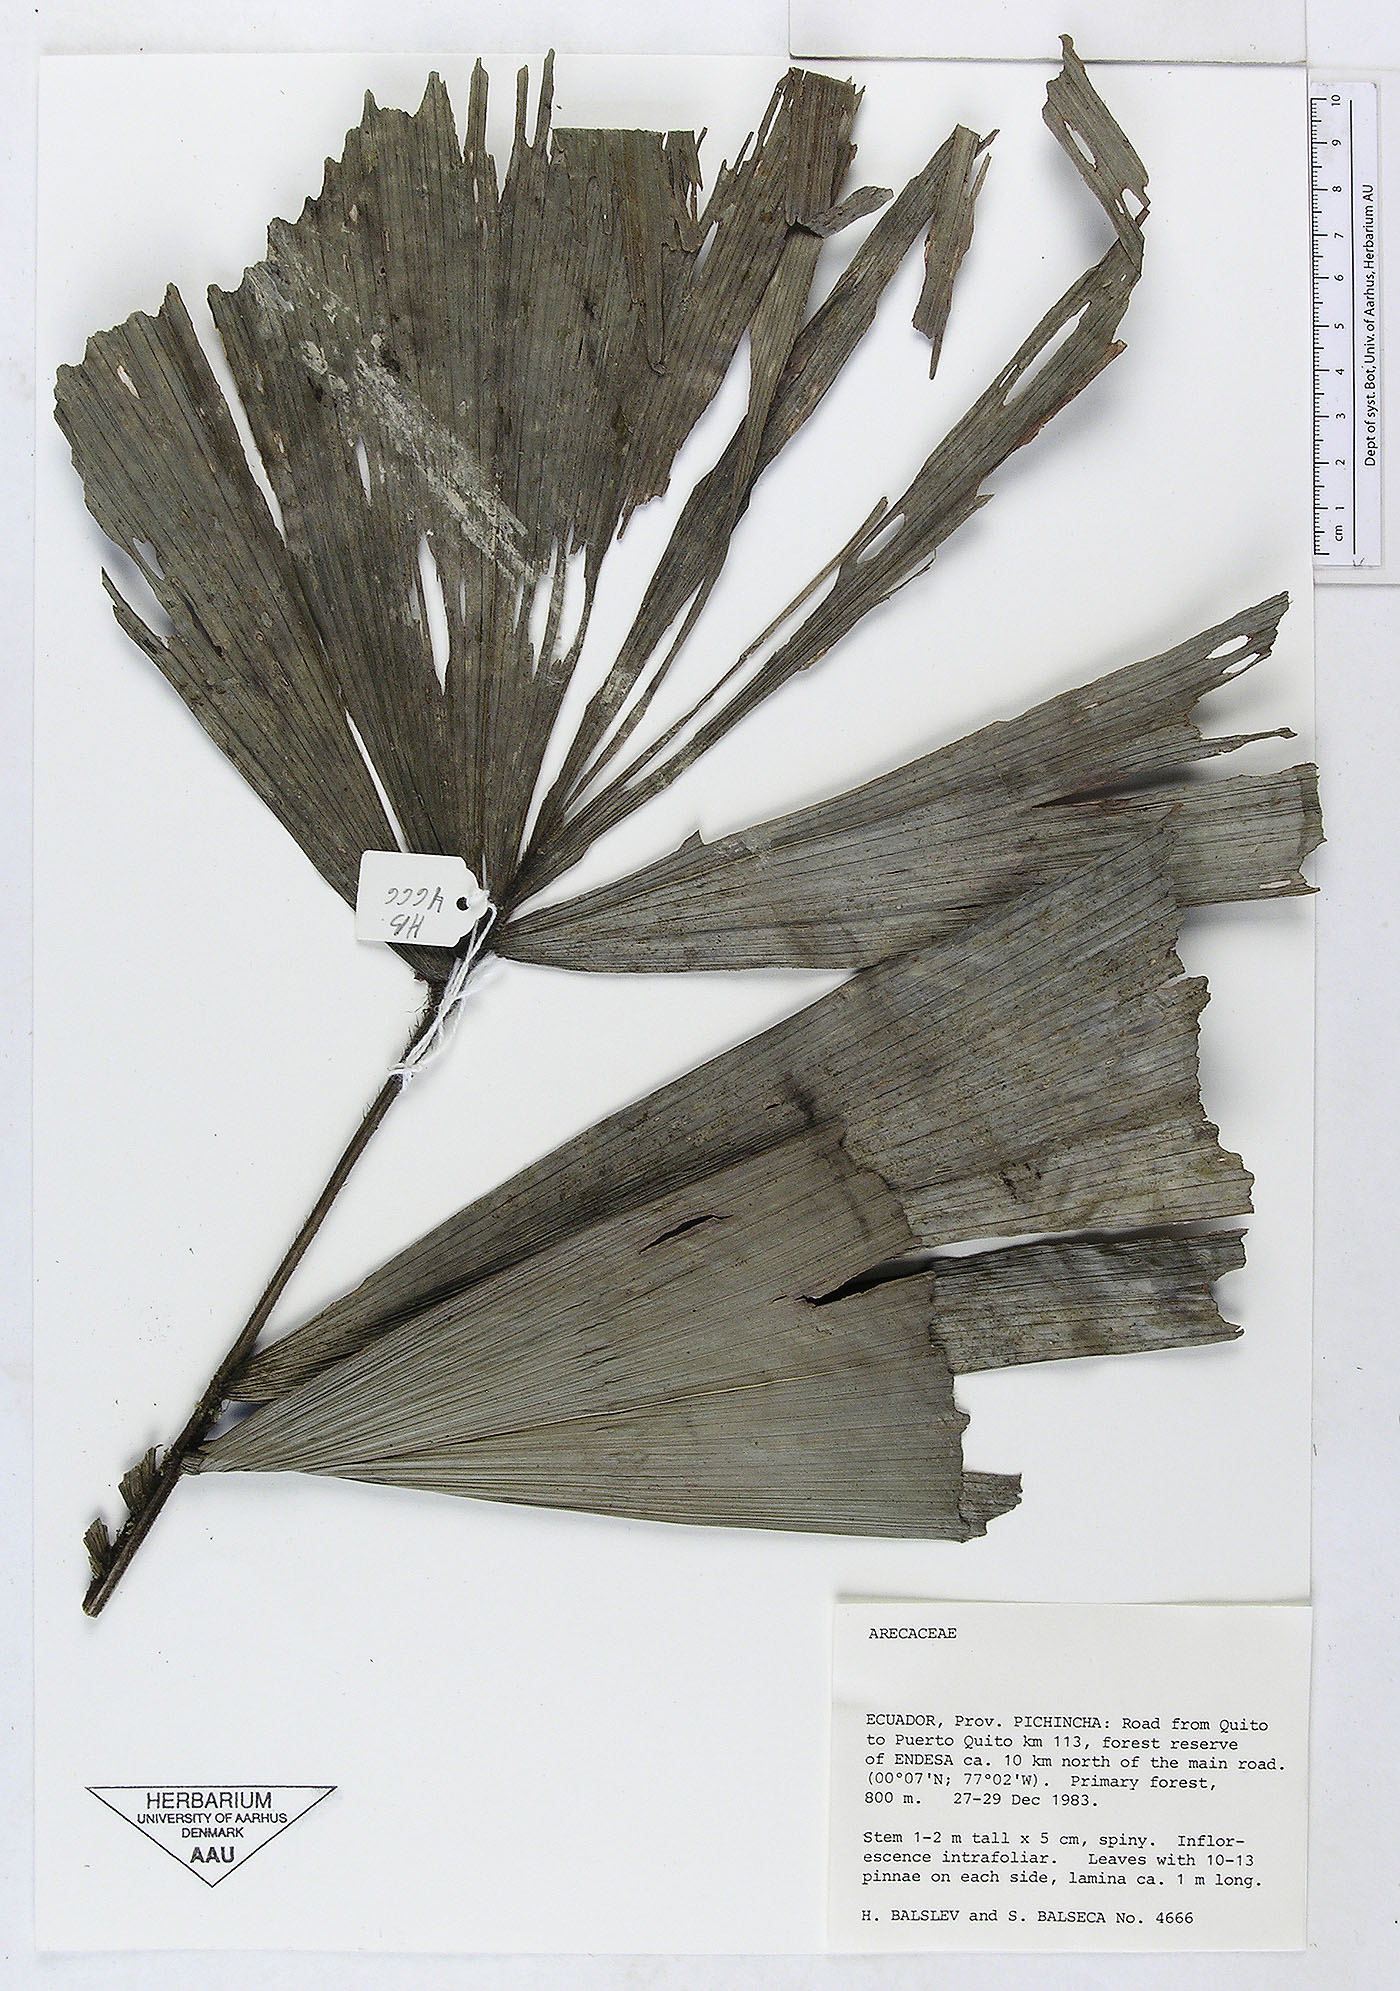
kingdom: Plantae
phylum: Tracheophyta
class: Liliopsida
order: Arecales
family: Arecaceae
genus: Aiphanes
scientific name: Aiphanes erinacea
